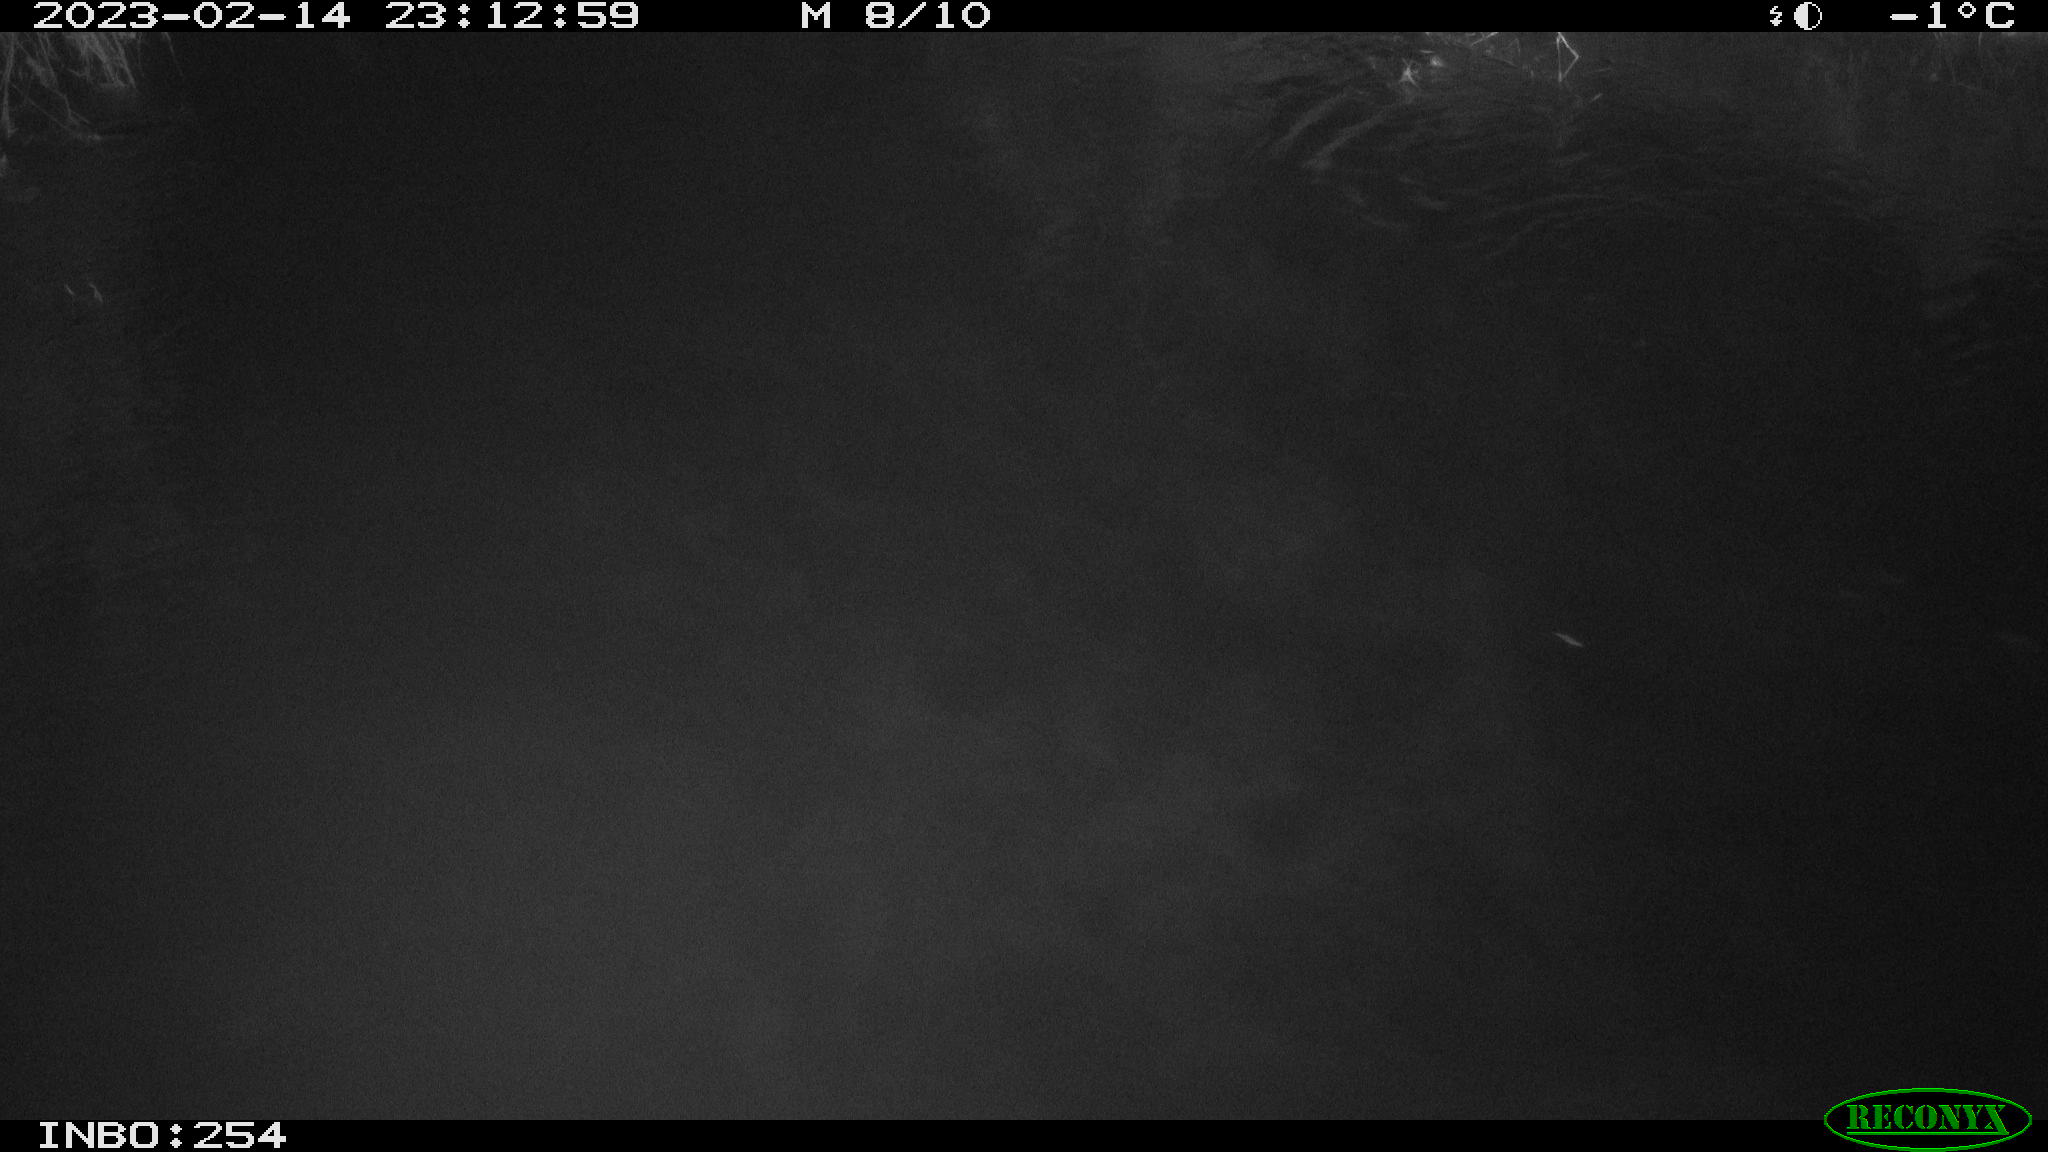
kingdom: Animalia
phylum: Chordata
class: Aves
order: Anseriformes
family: Anatidae
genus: Anas
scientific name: Anas
